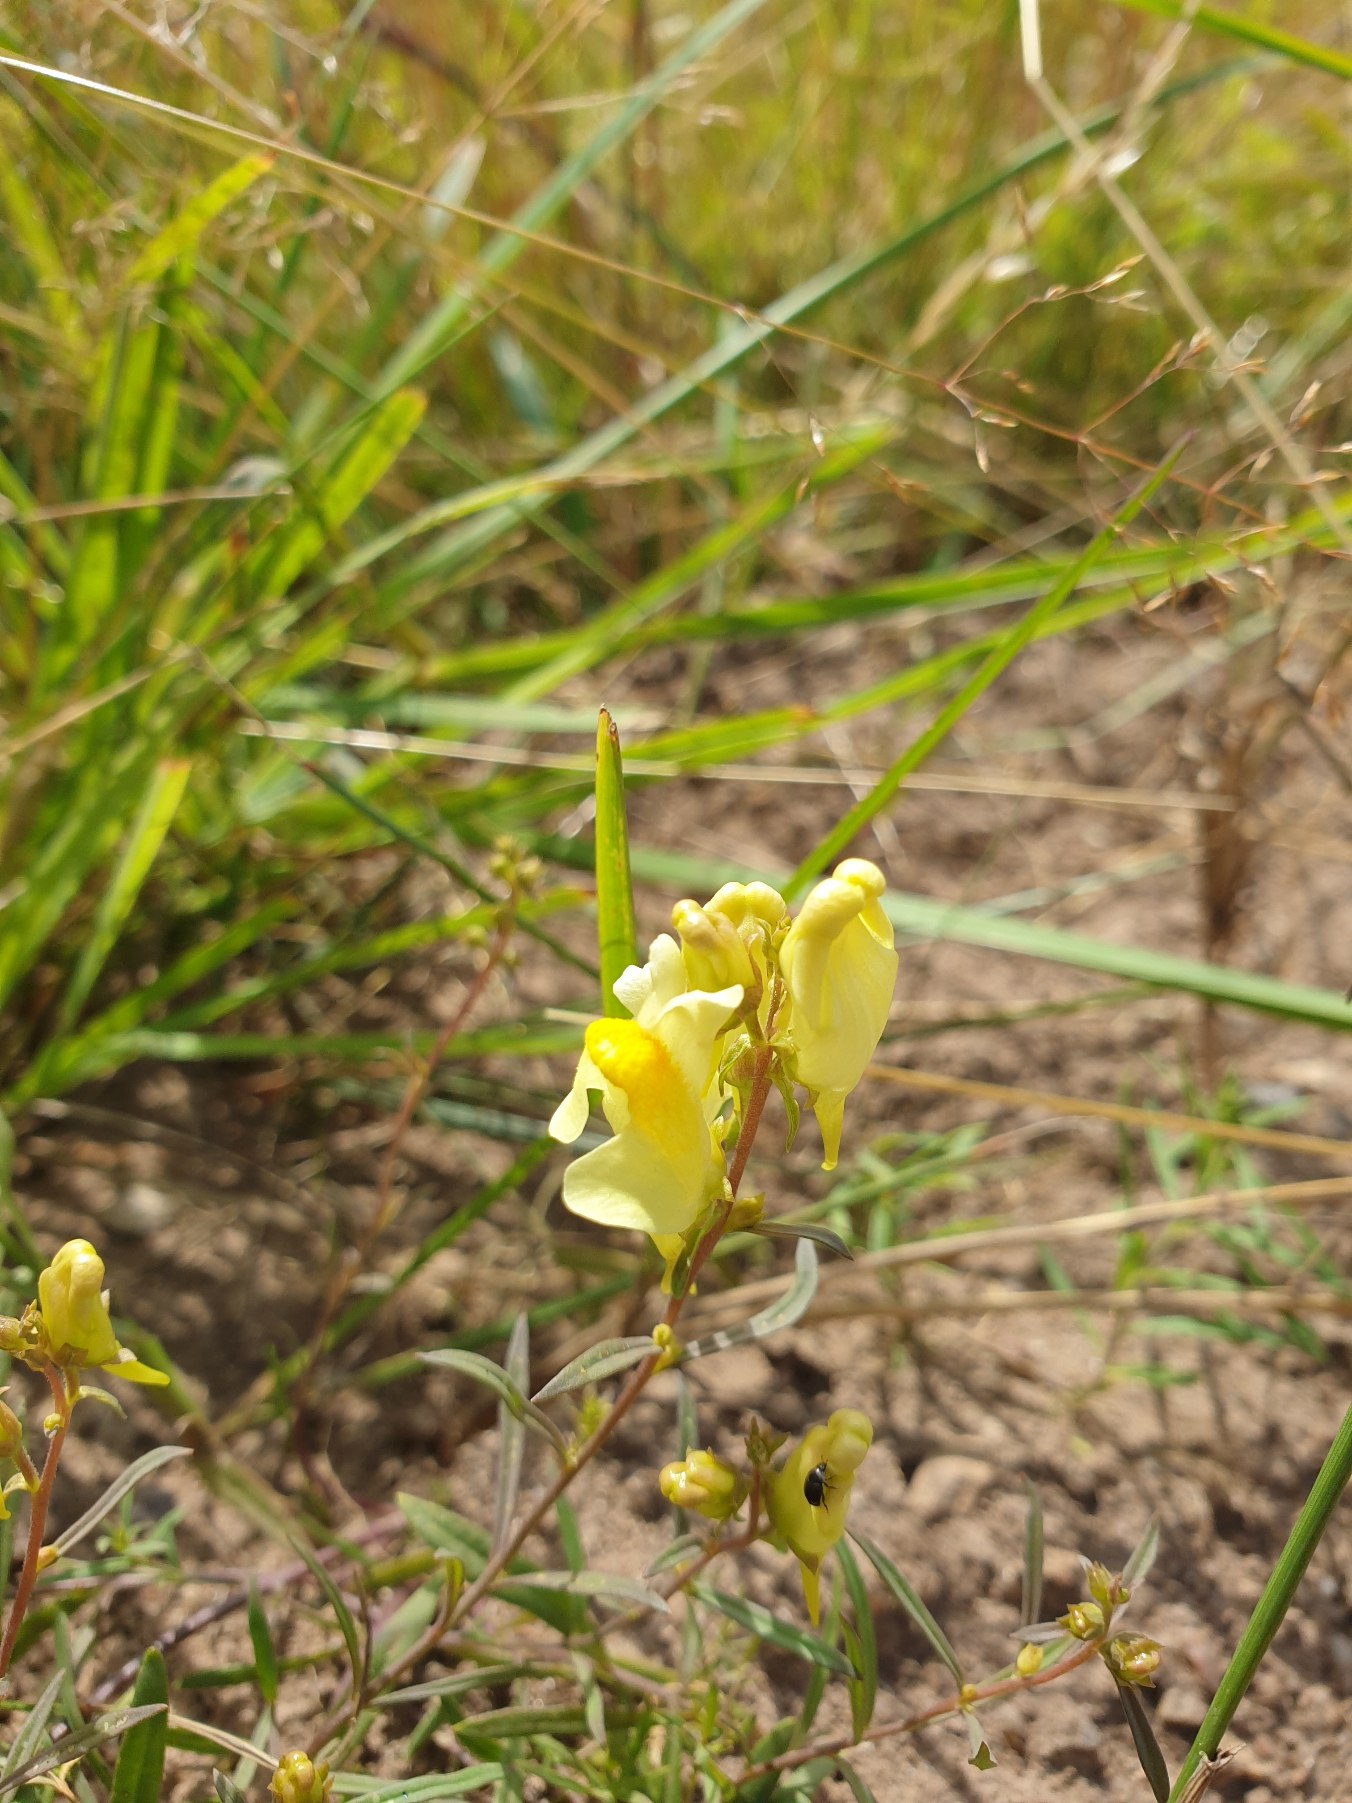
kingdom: Plantae
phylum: Tracheophyta
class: Magnoliopsida
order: Lamiales
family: Plantaginaceae
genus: Linaria
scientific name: Linaria vulgaris
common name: Almindelig torskemund
